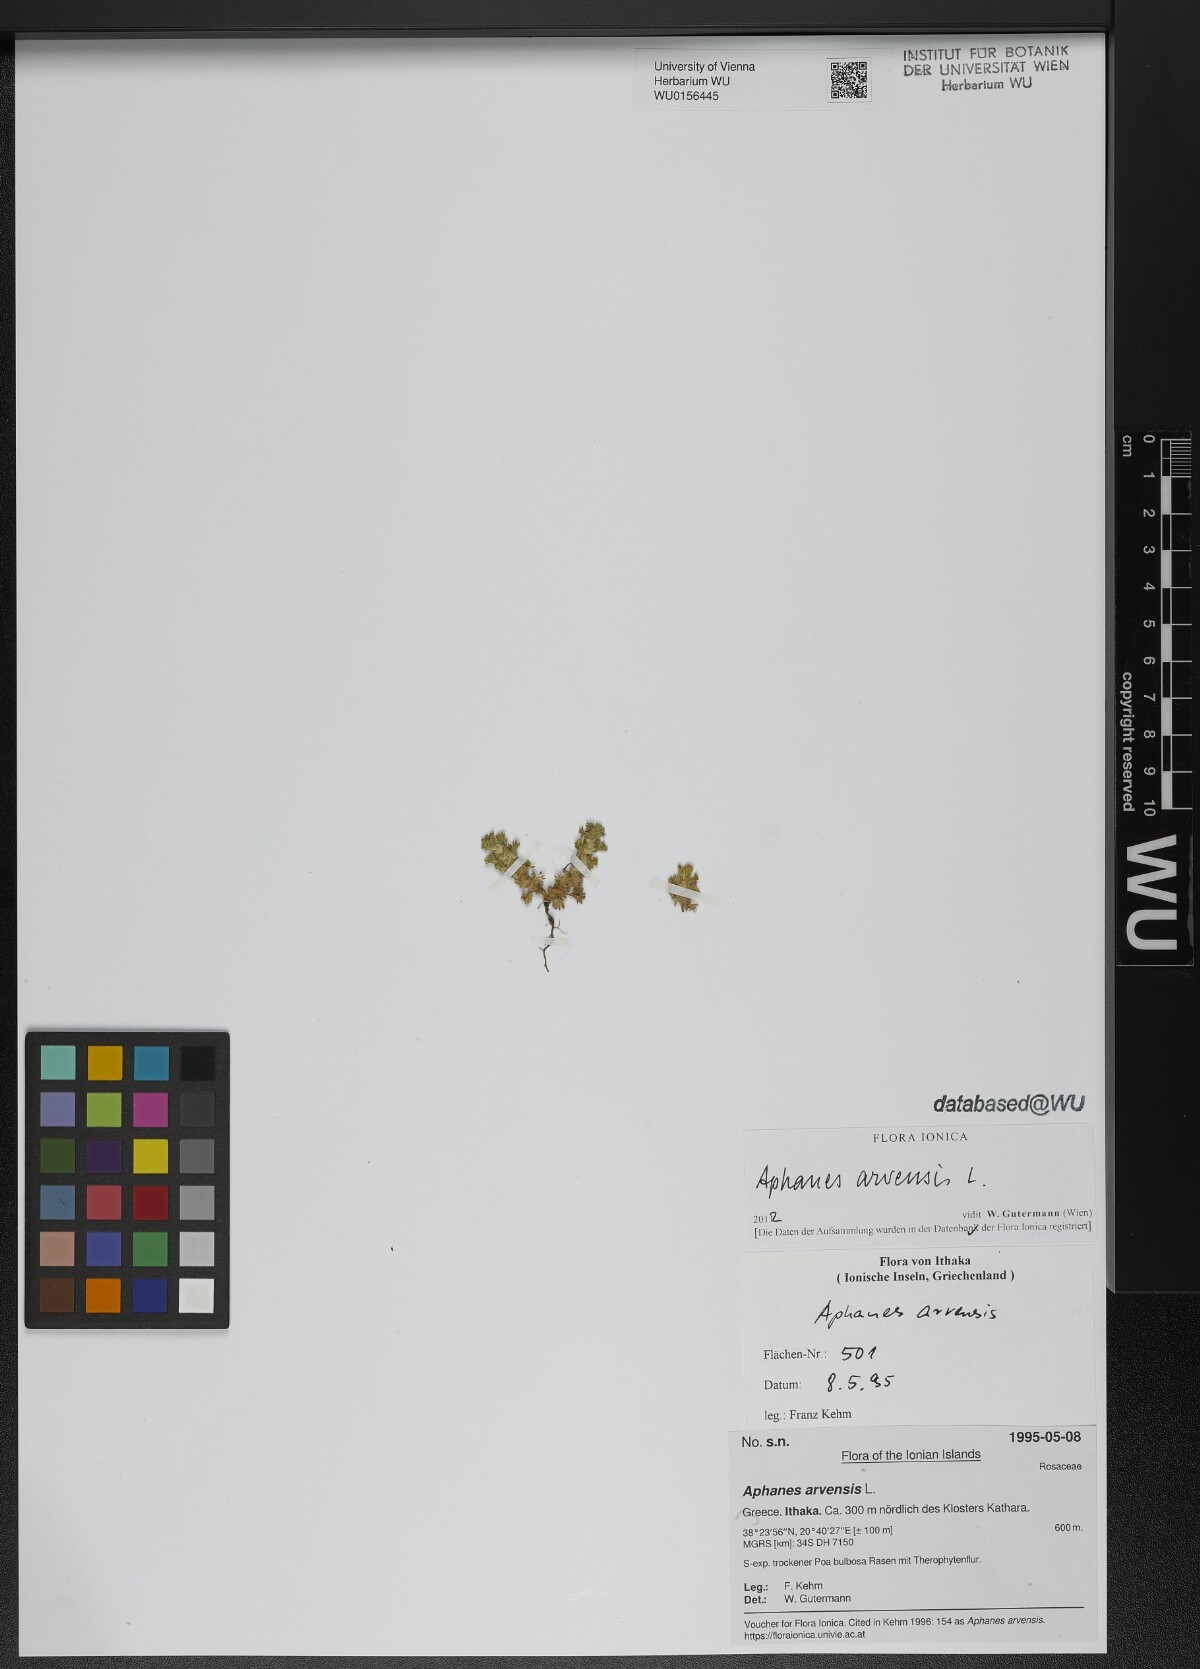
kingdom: Plantae
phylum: Tracheophyta
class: Magnoliopsida
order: Rosales
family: Rosaceae
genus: Aphanes
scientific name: Aphanes arvensis
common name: Parsley-piert
